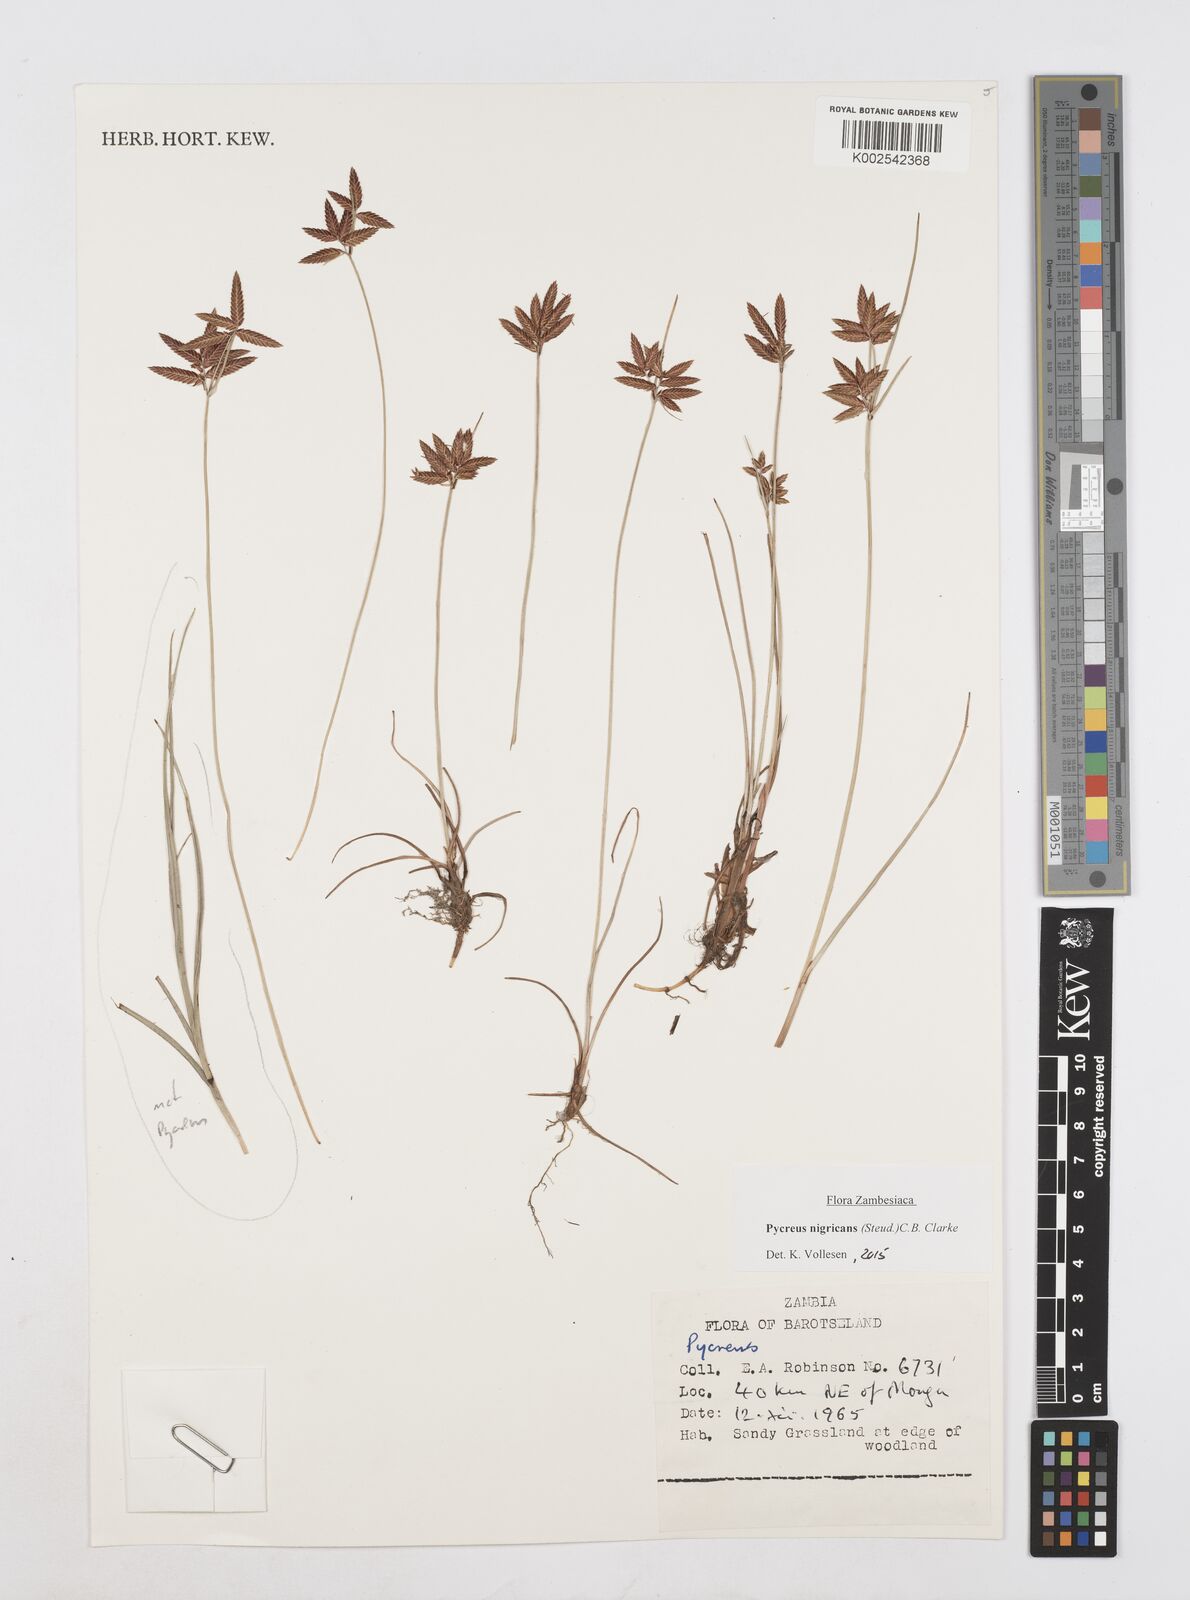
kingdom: Plantae
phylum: Tracheophyta
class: Liliopsida
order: Poales
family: Cyperaceae
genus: Cyperus
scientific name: Cyperus nigricans
